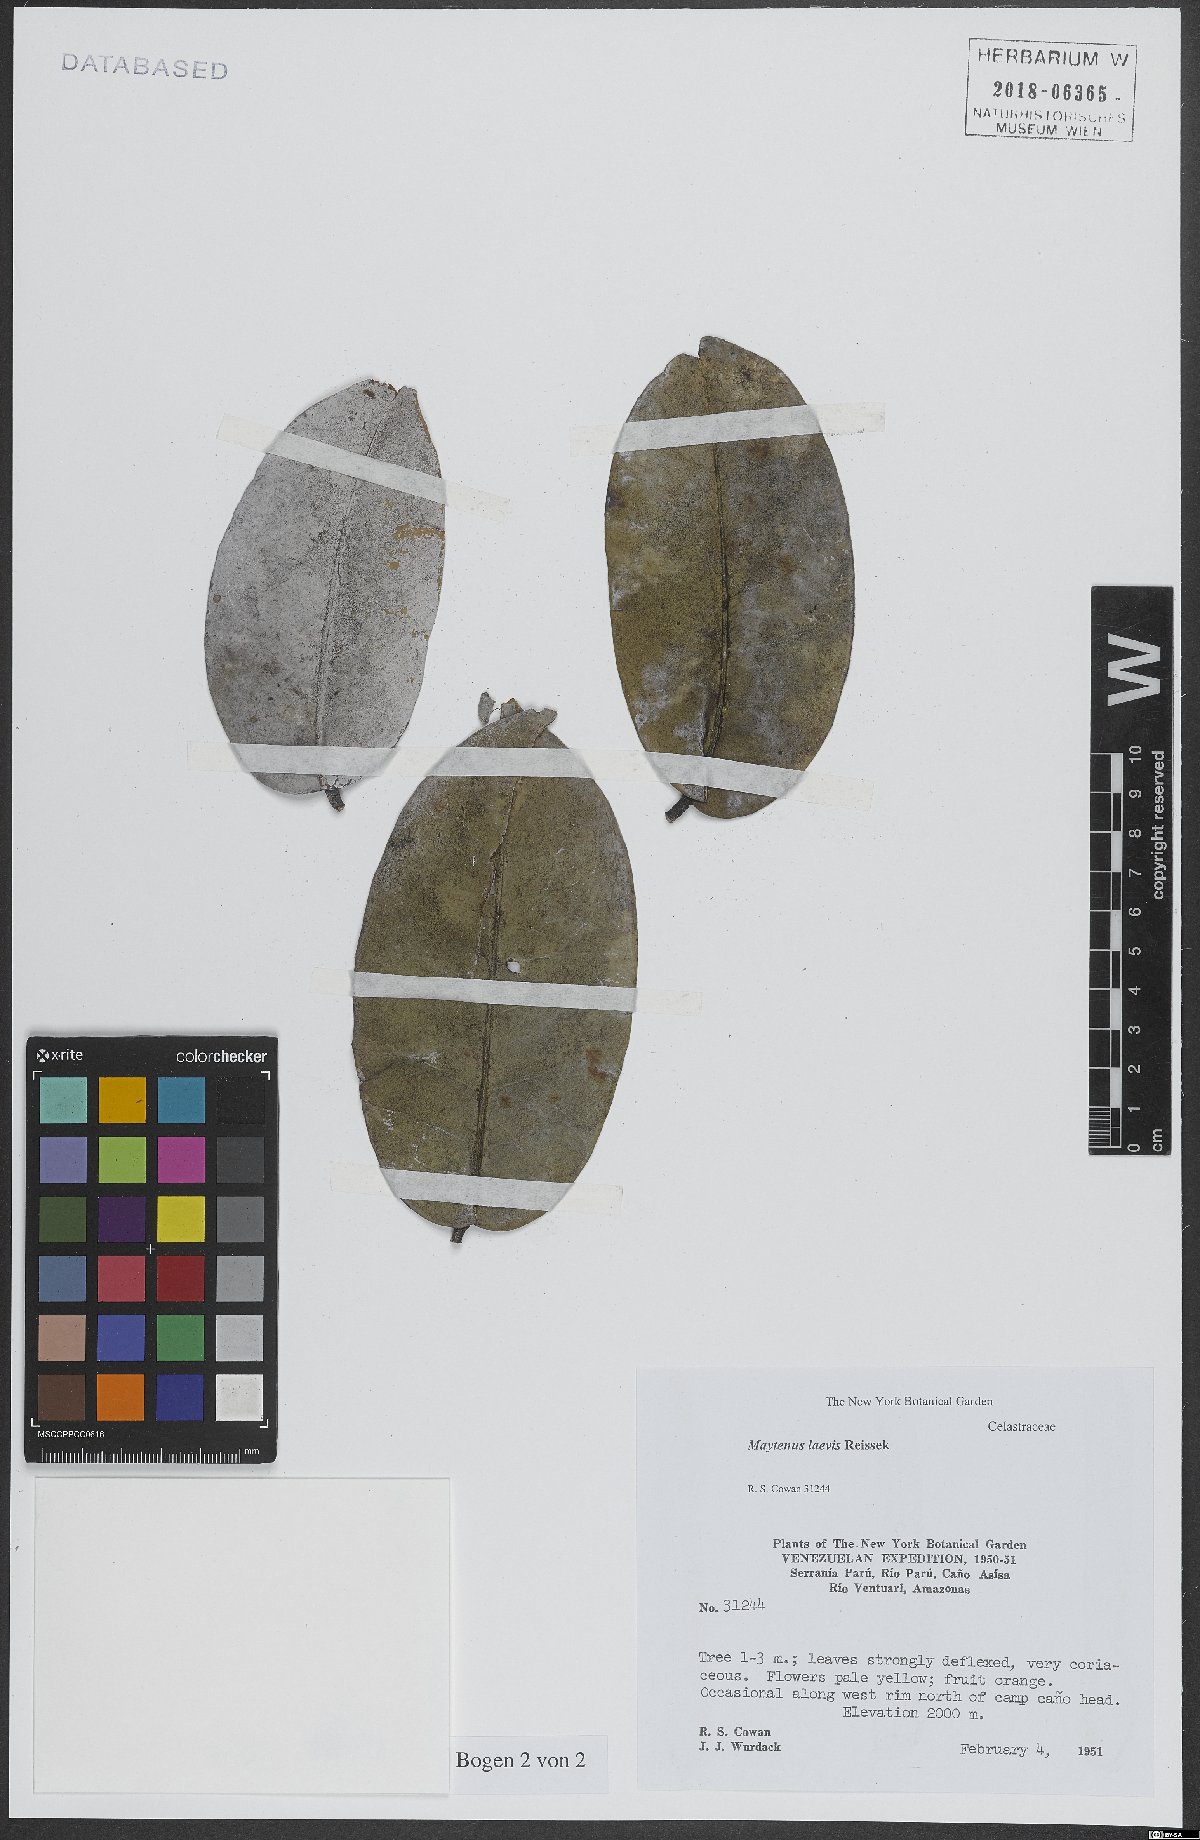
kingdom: Plantae
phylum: Tracheophyta
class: Magnoliopsida
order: Celastrales
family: Celastraceae
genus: Monteverdia
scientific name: Monteverdia laevis
